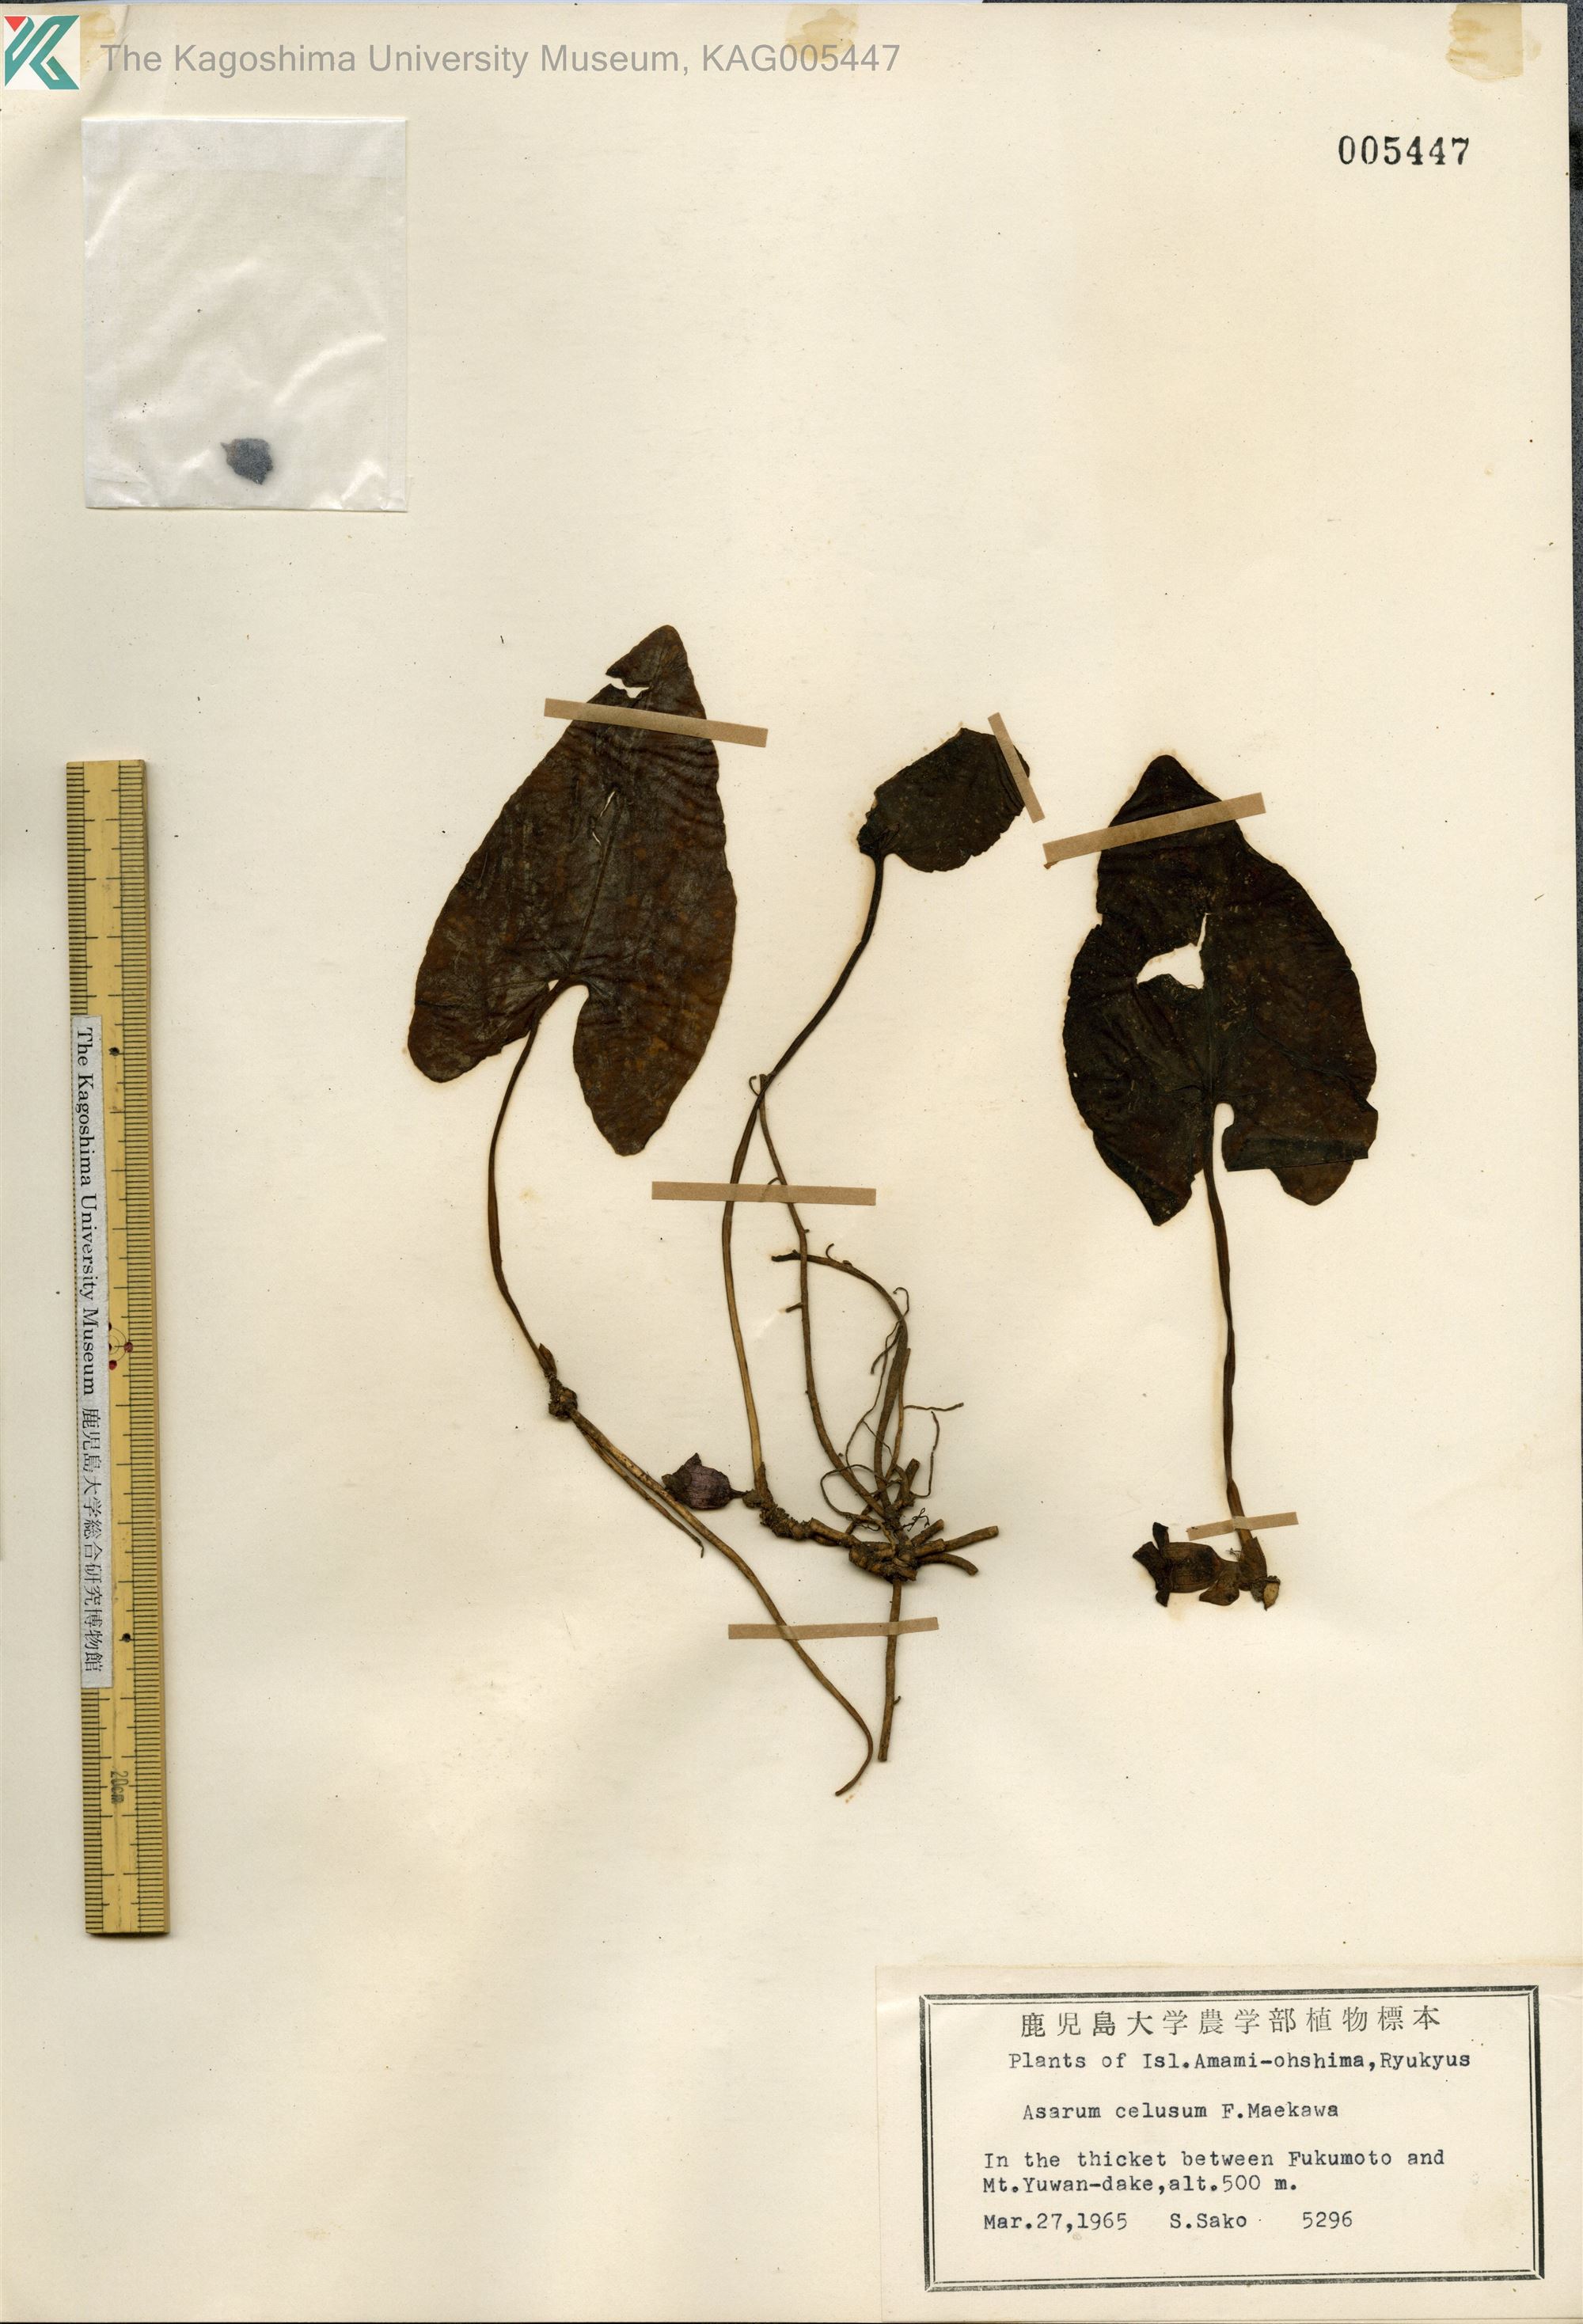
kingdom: Plantae
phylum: Tracheophyta
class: Magnoliopsida
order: Piperales
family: Aristolochiaceae
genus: Asarum
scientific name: Asarum celsum
